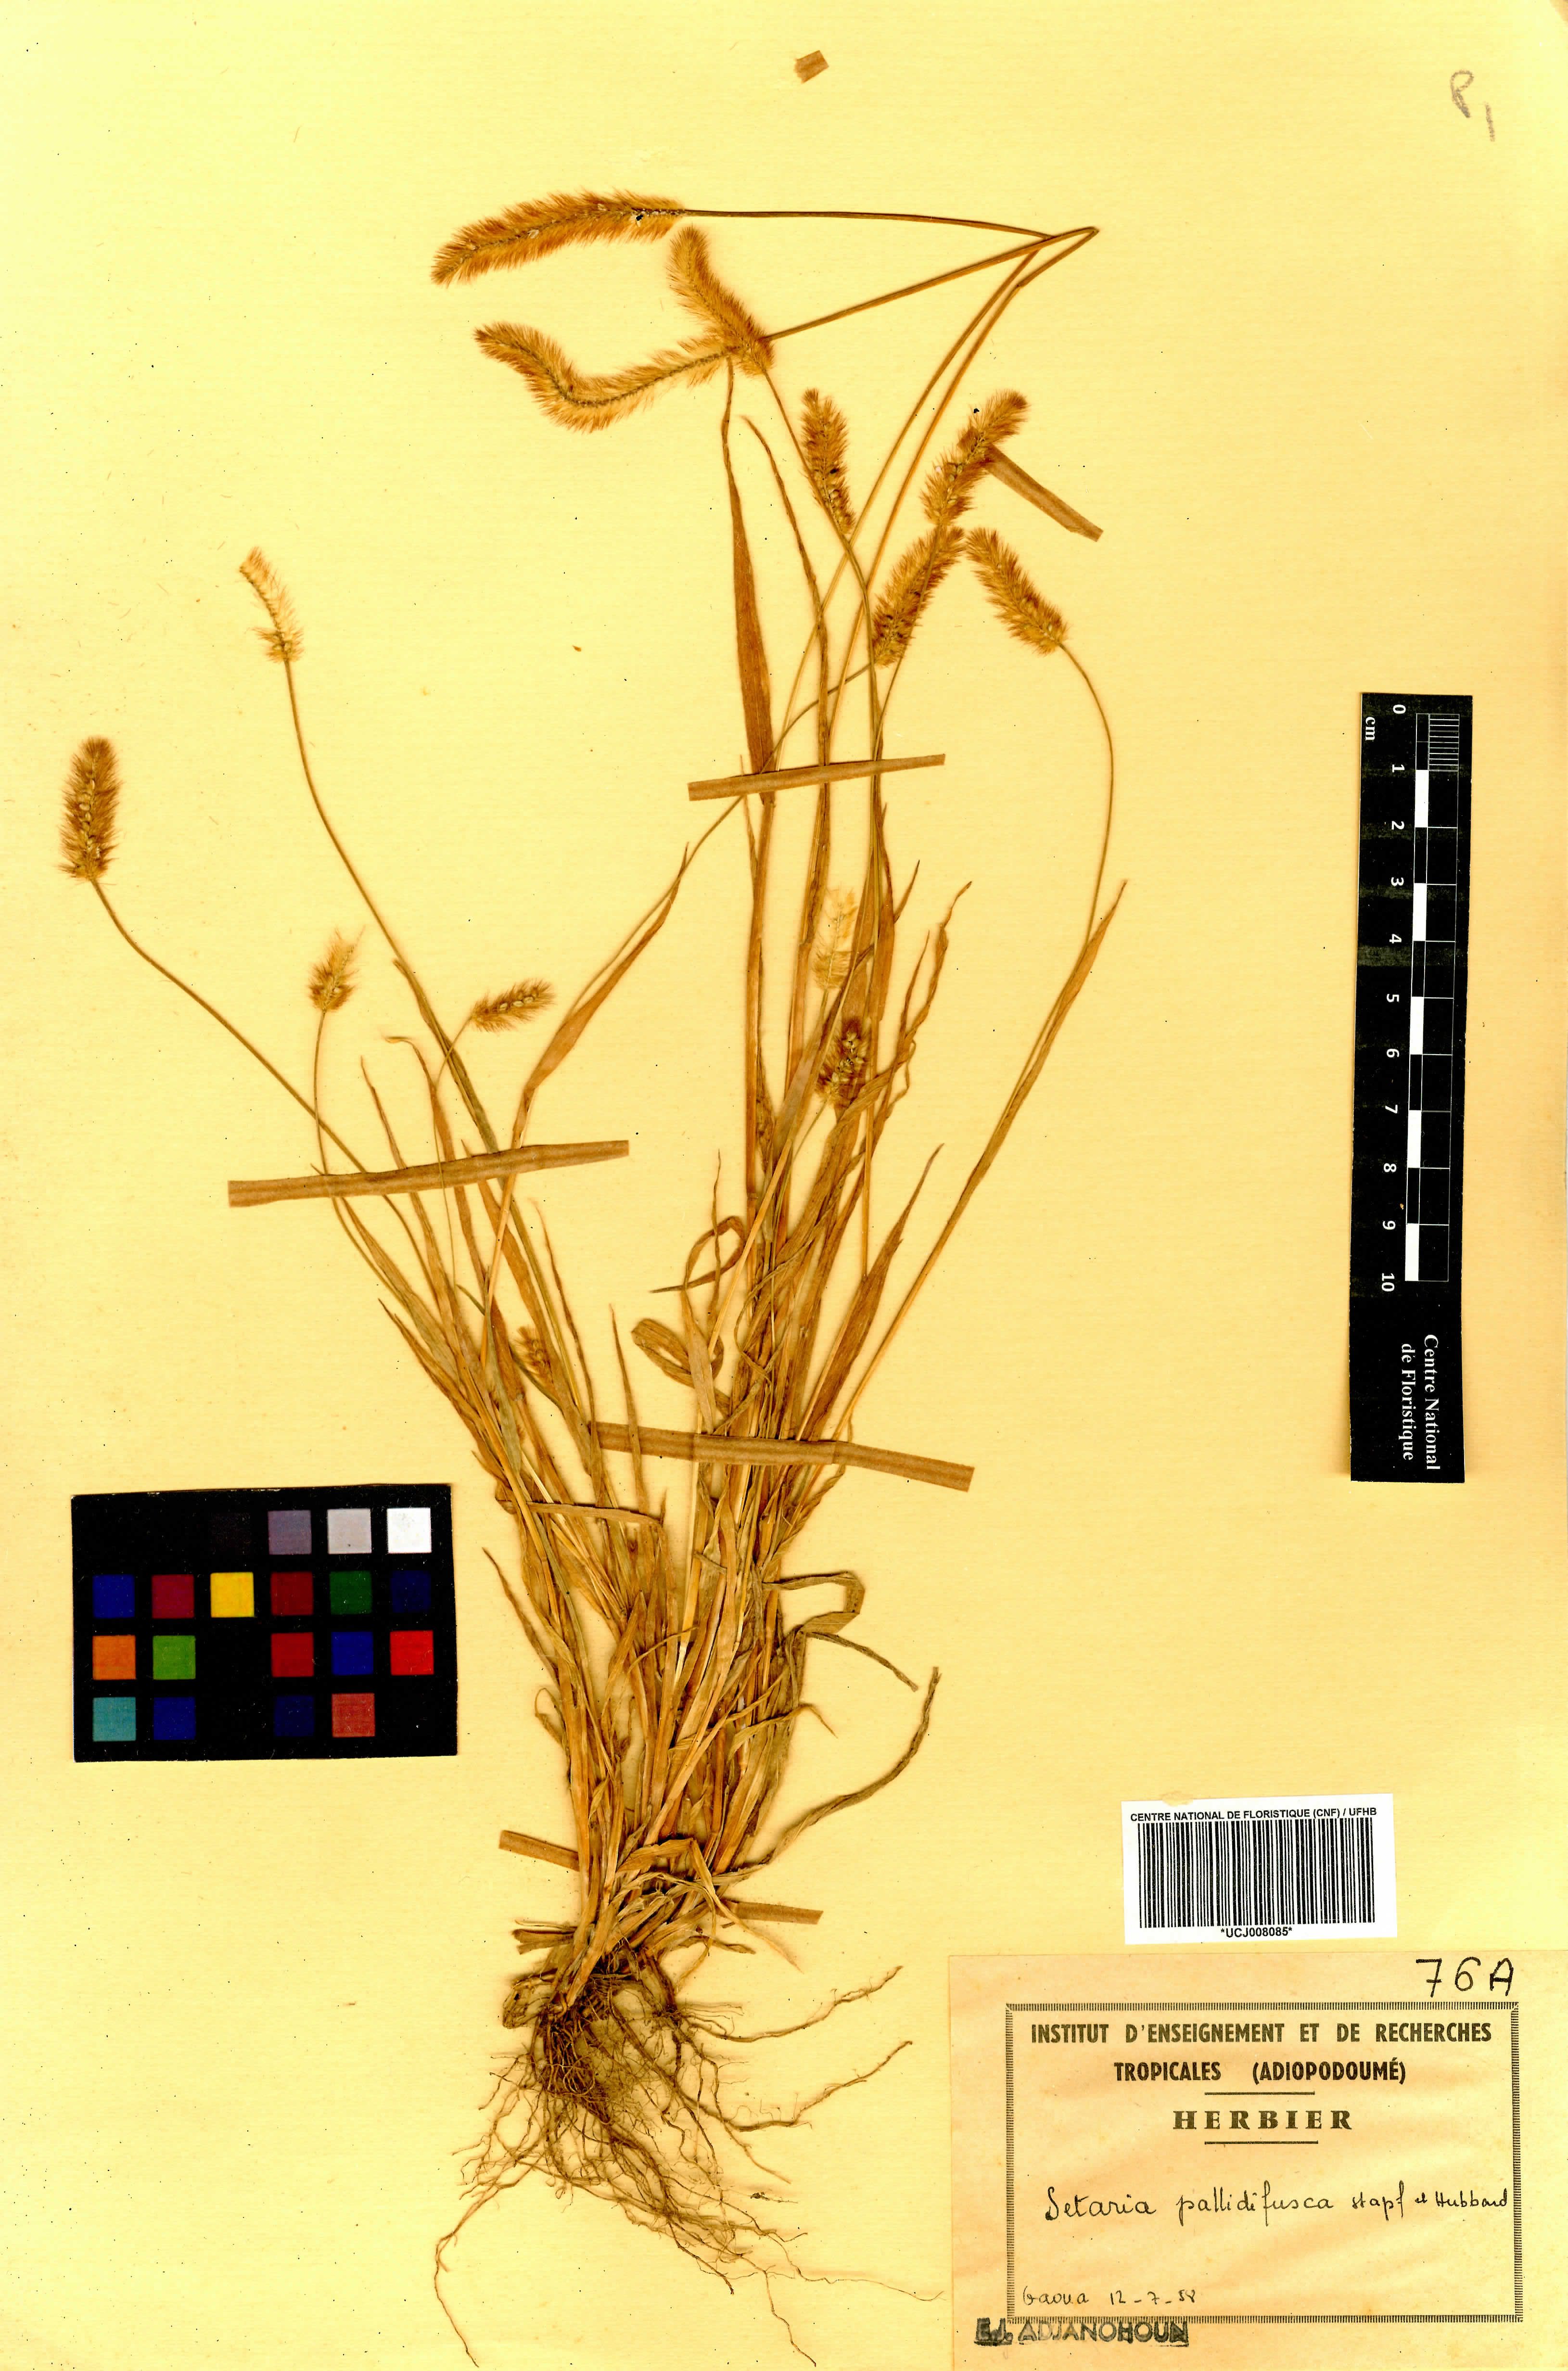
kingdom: Plantae
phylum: Tracheophyta
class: Liliopsida
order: Poales
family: Poaceae
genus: Setaria
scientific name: Setaria italica
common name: Foxtail bristle-grass
